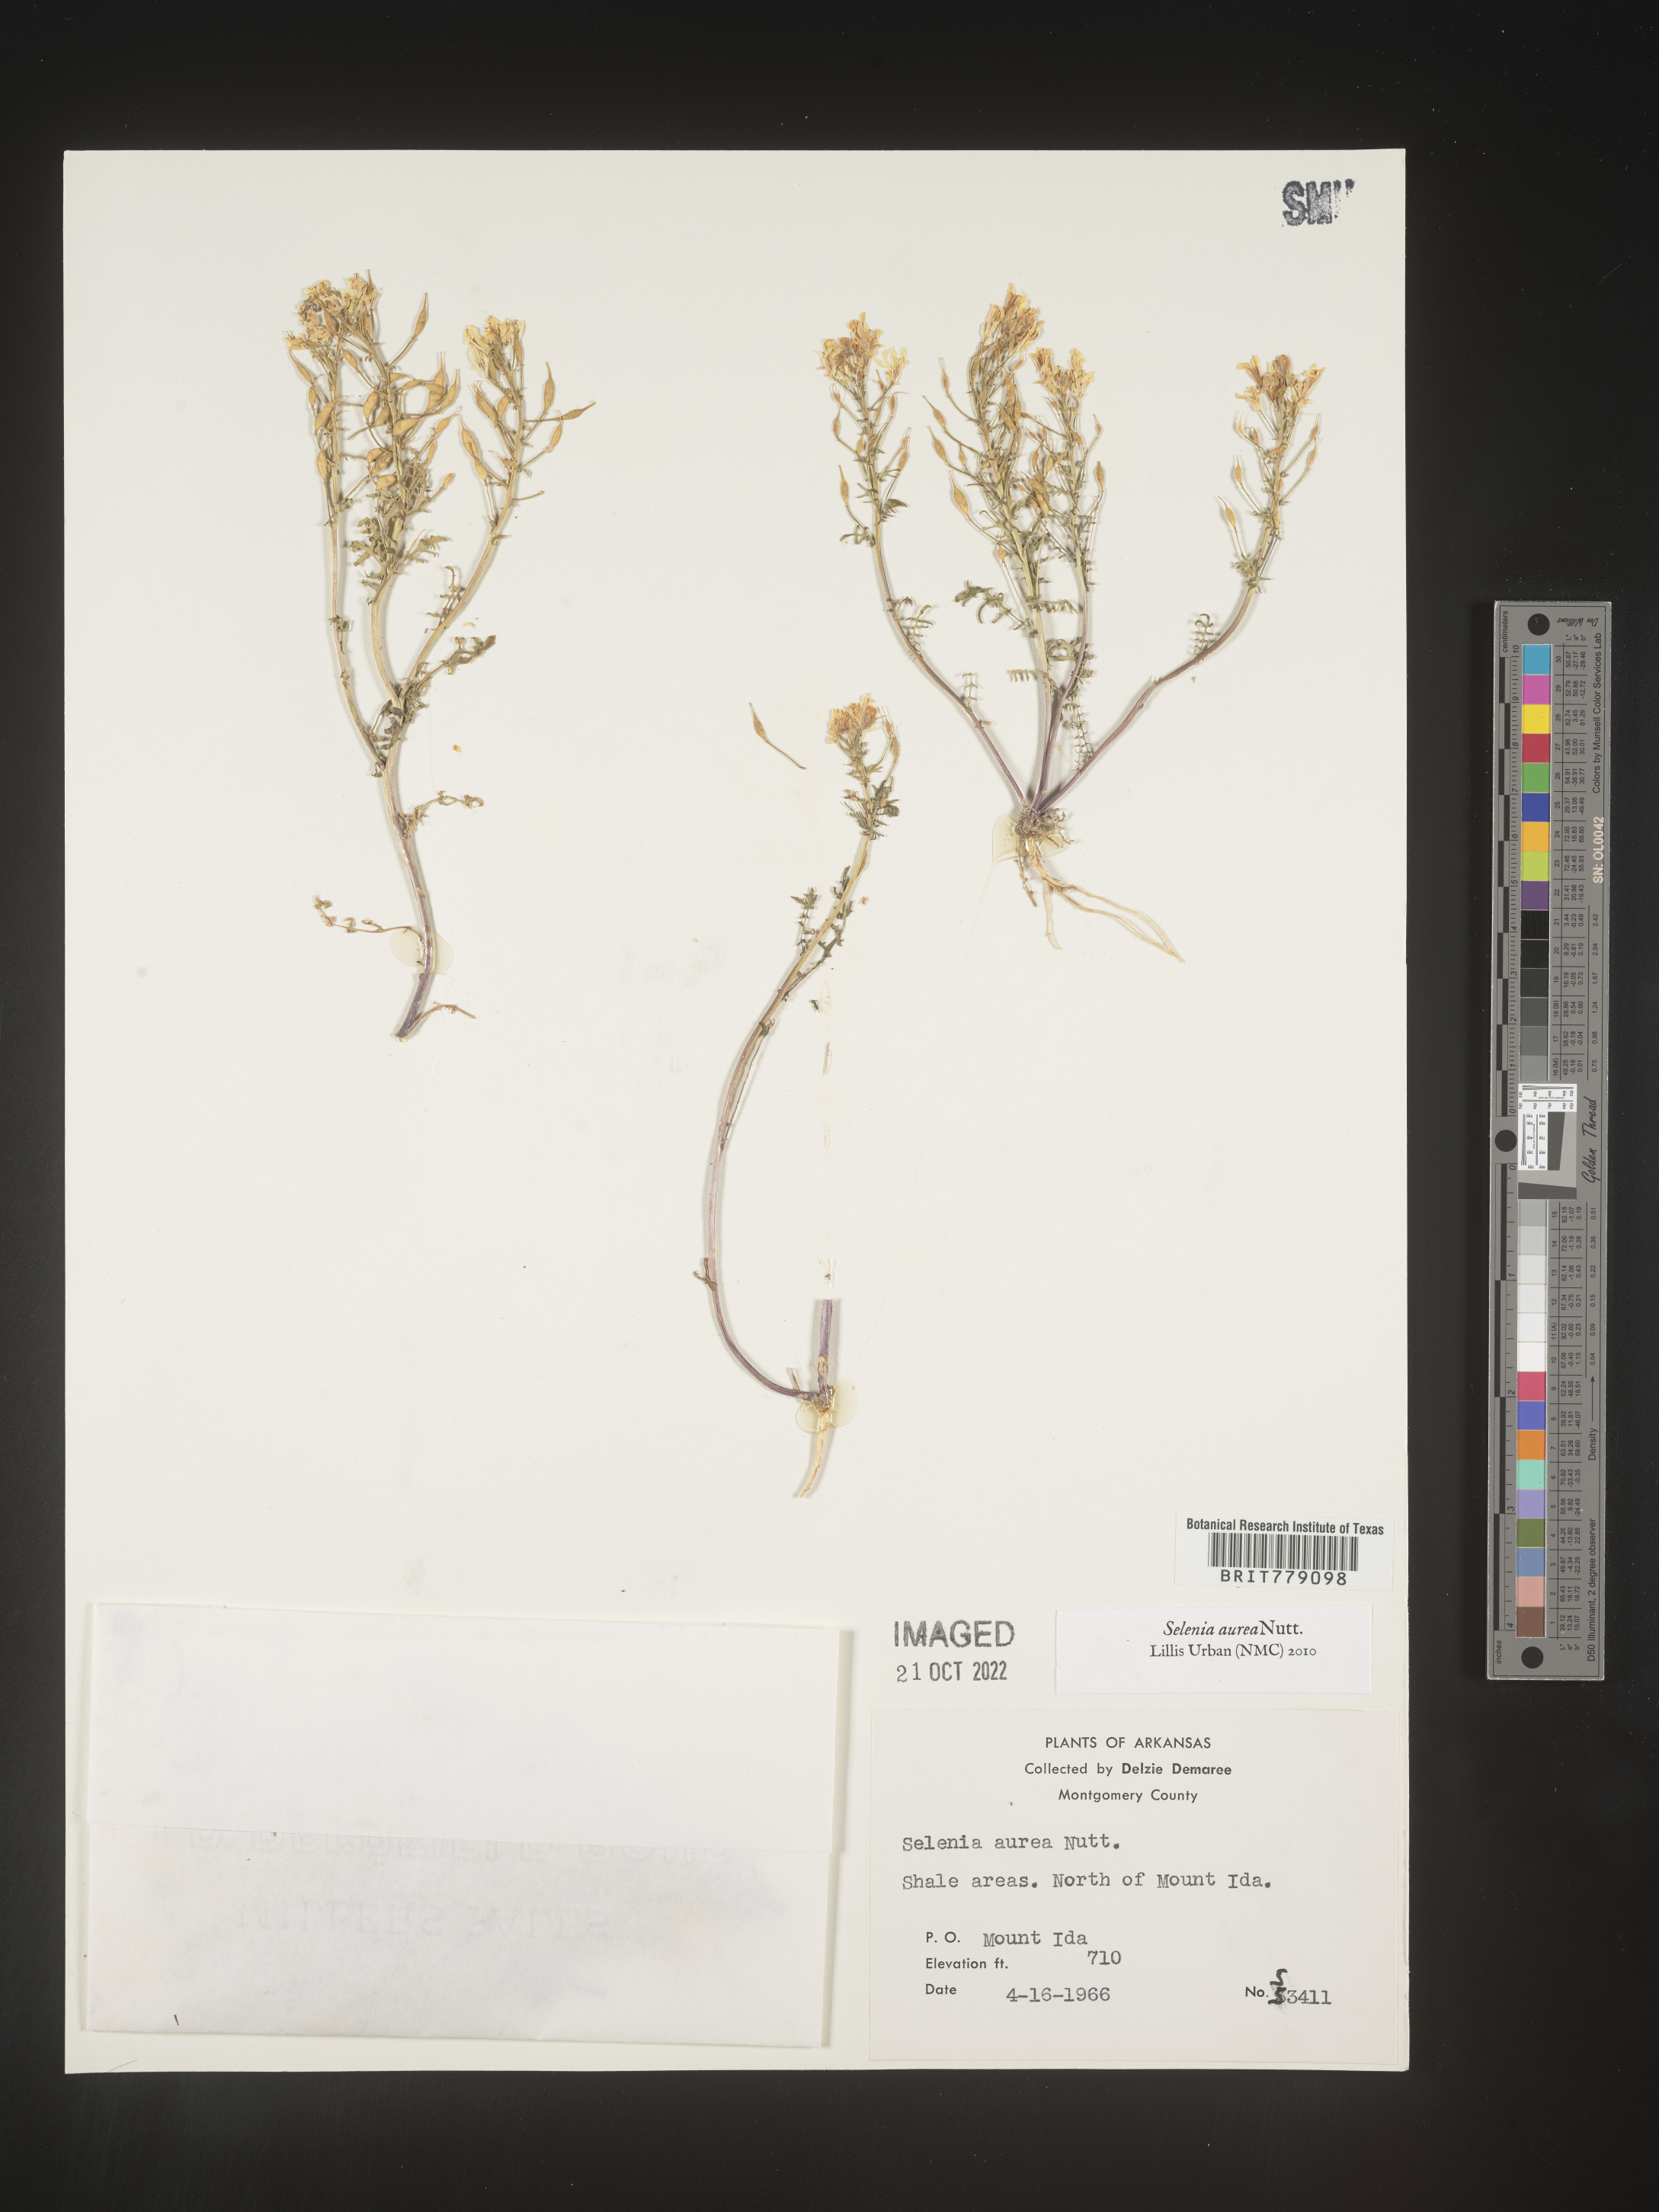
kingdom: Plantae
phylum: Tracheophyta
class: Magnoliopsida
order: Brassicales
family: Brassicaceae
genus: Selenia
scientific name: Selenia
